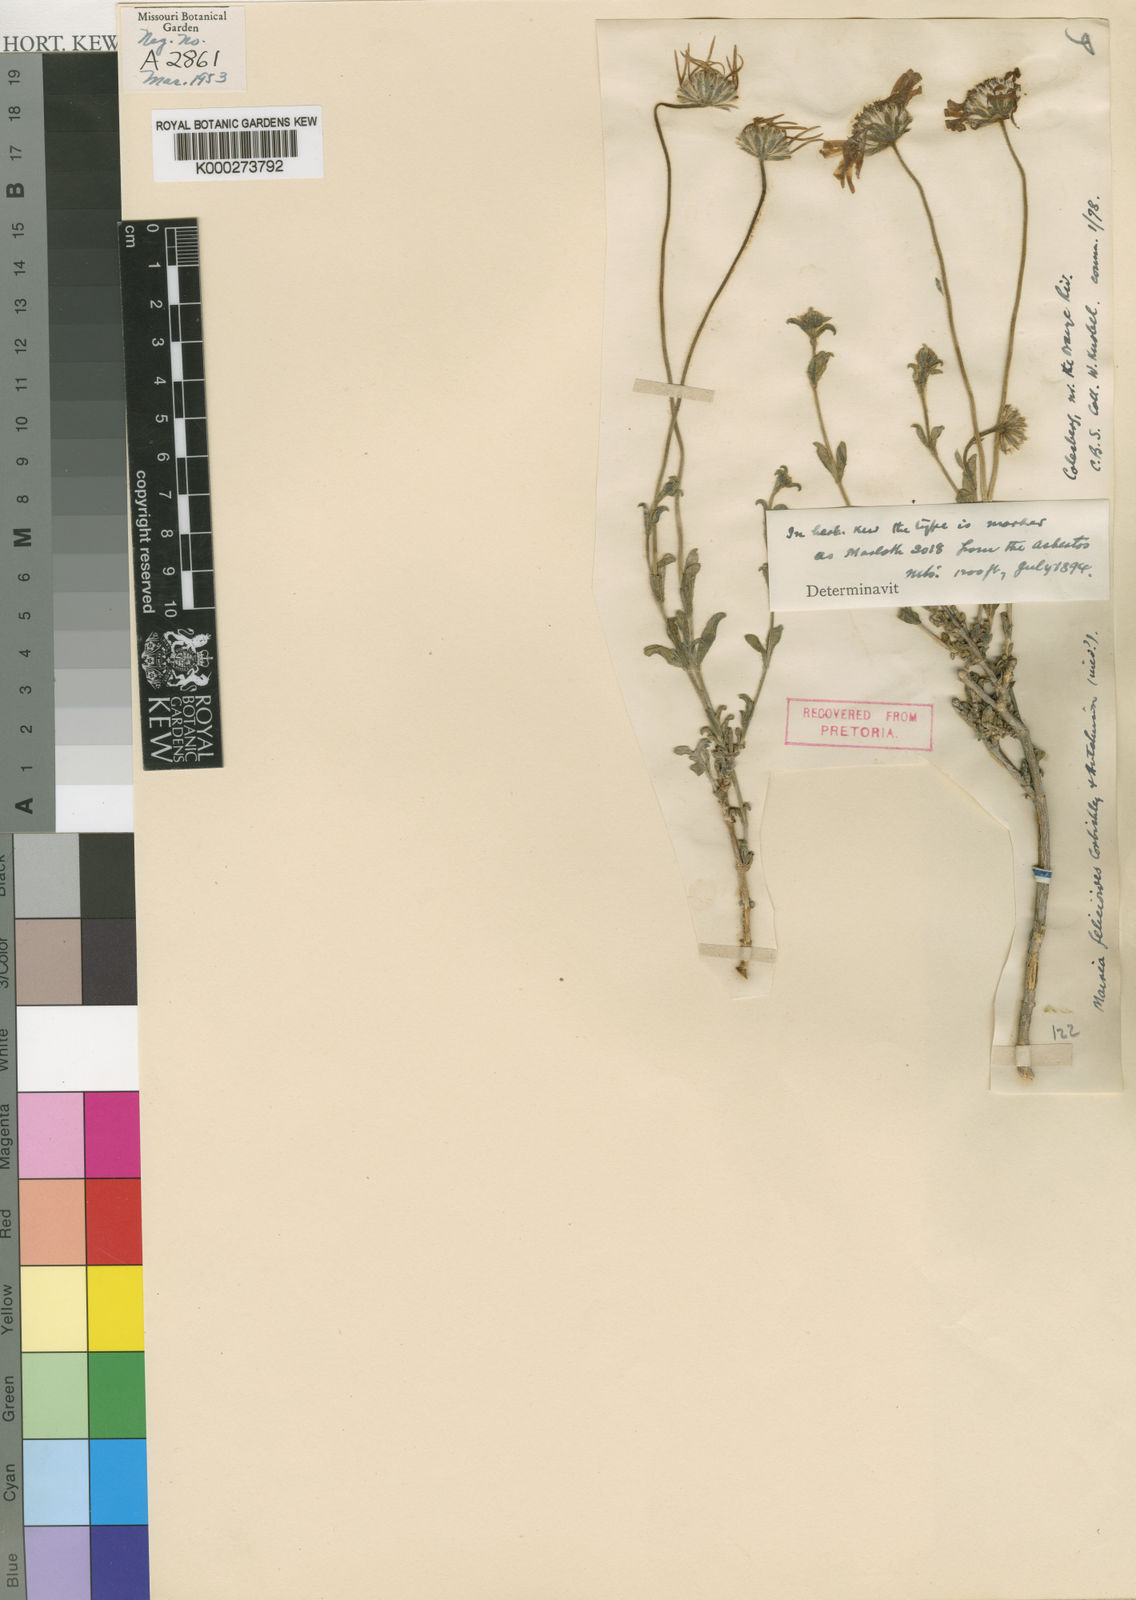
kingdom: Plantae
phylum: Tracheophyta
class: Magnoliopsida
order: Asterales
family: Asteraceae
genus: Felicia
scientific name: Felicia
